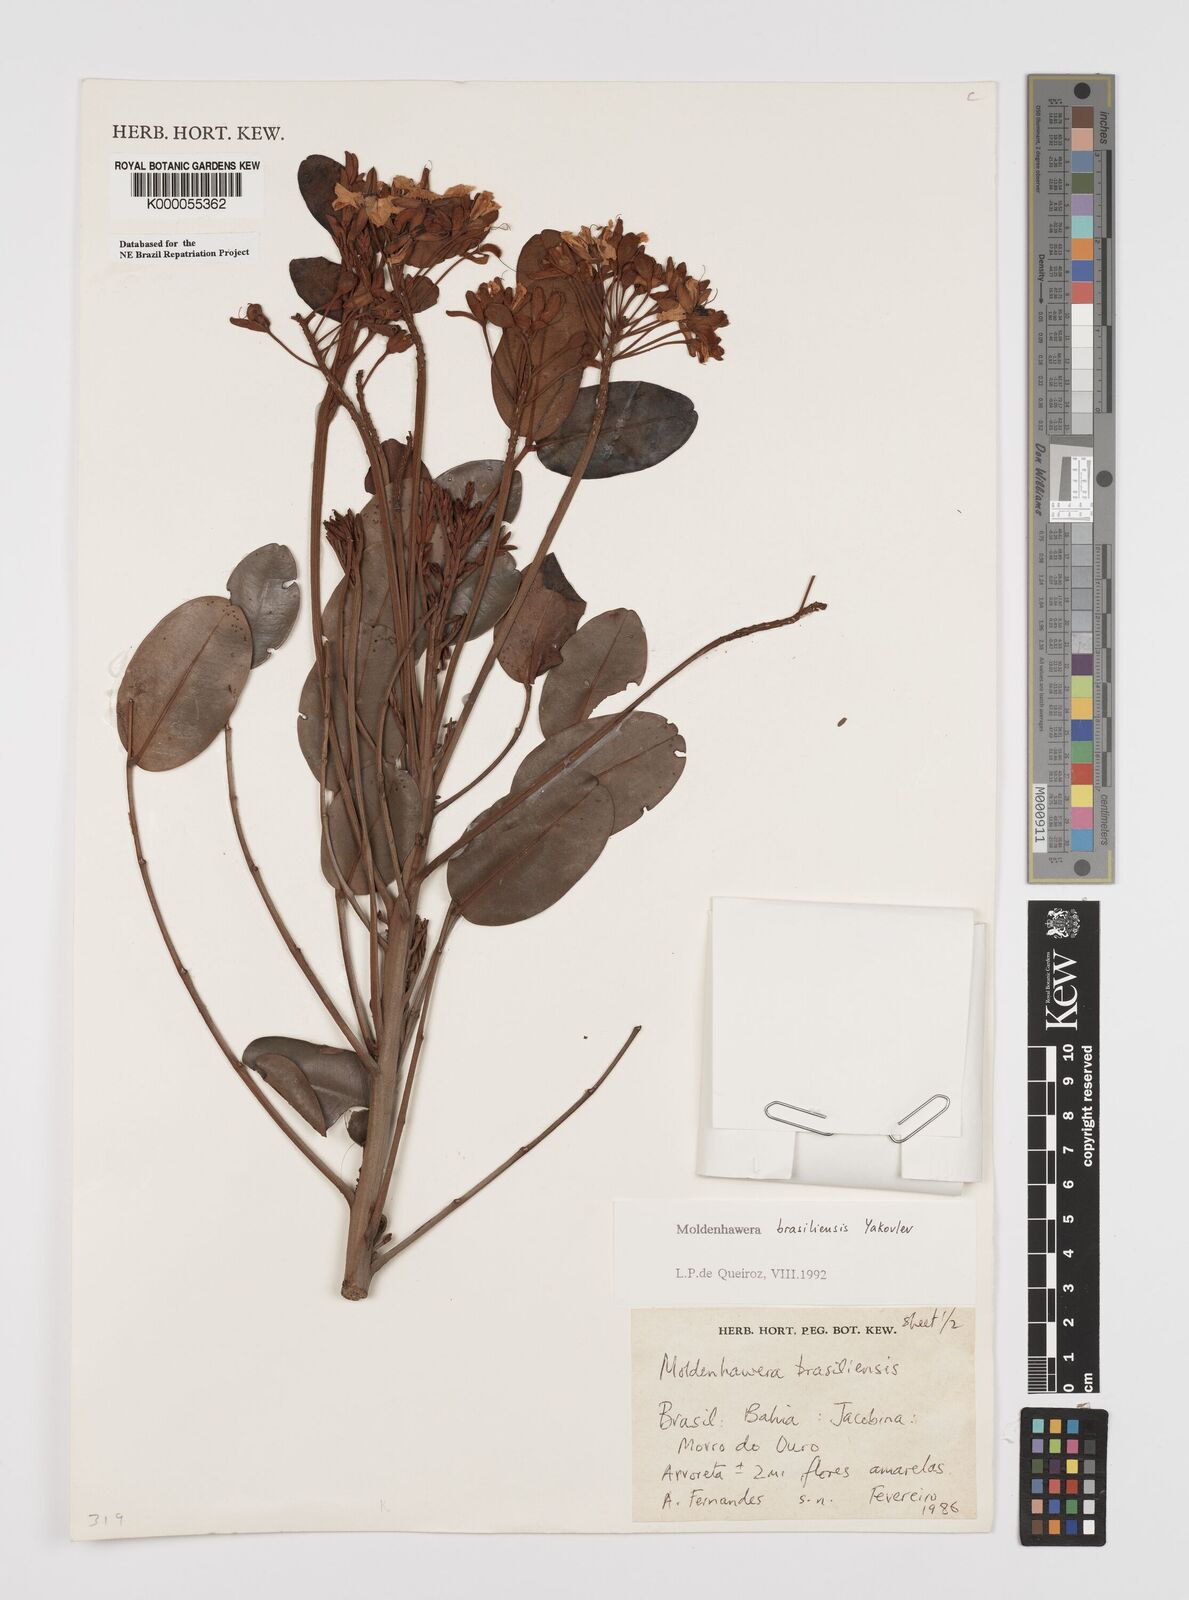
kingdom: Plantae
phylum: Tracheophyta
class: Magnoliopsida
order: Fabales
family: Fabaceae
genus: Moldenhawera
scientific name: Moldenhawera brasiliensis
